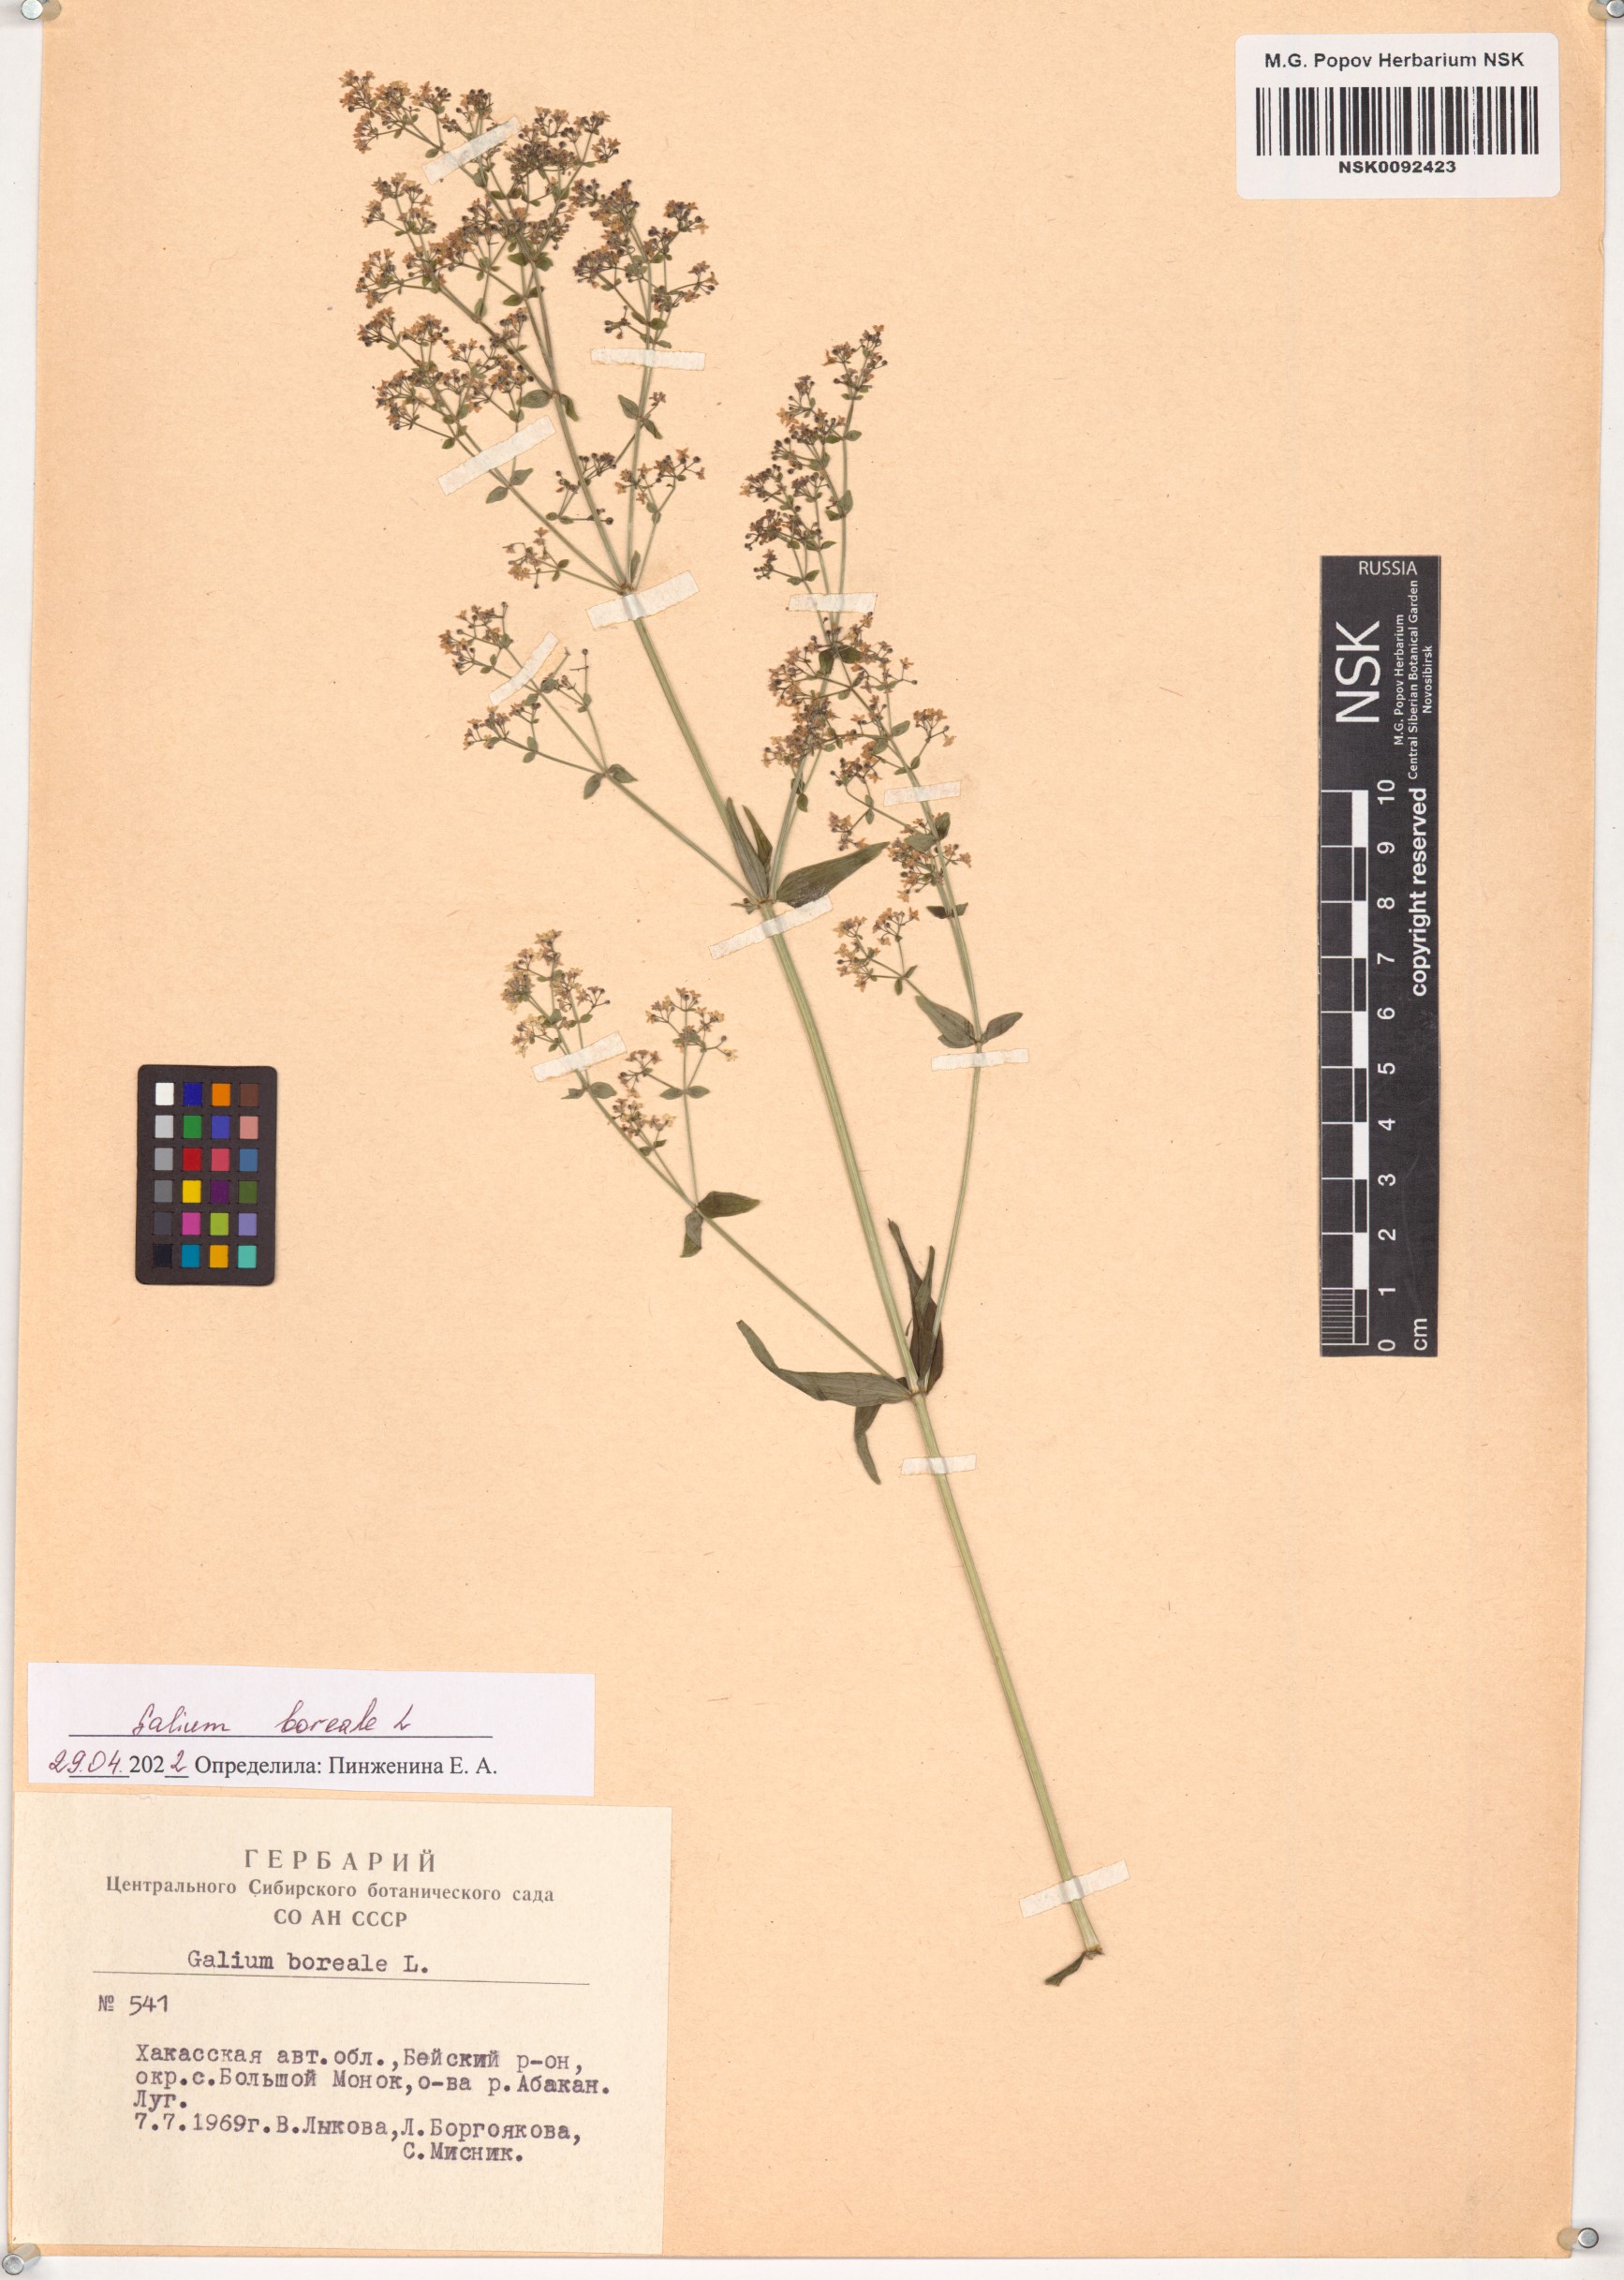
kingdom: Plantae
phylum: Tracheophyta
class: Magnoliopsida
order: Gentianales
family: Rubiaceae
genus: Galium
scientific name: Galium boreale
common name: Northern bedstraw
